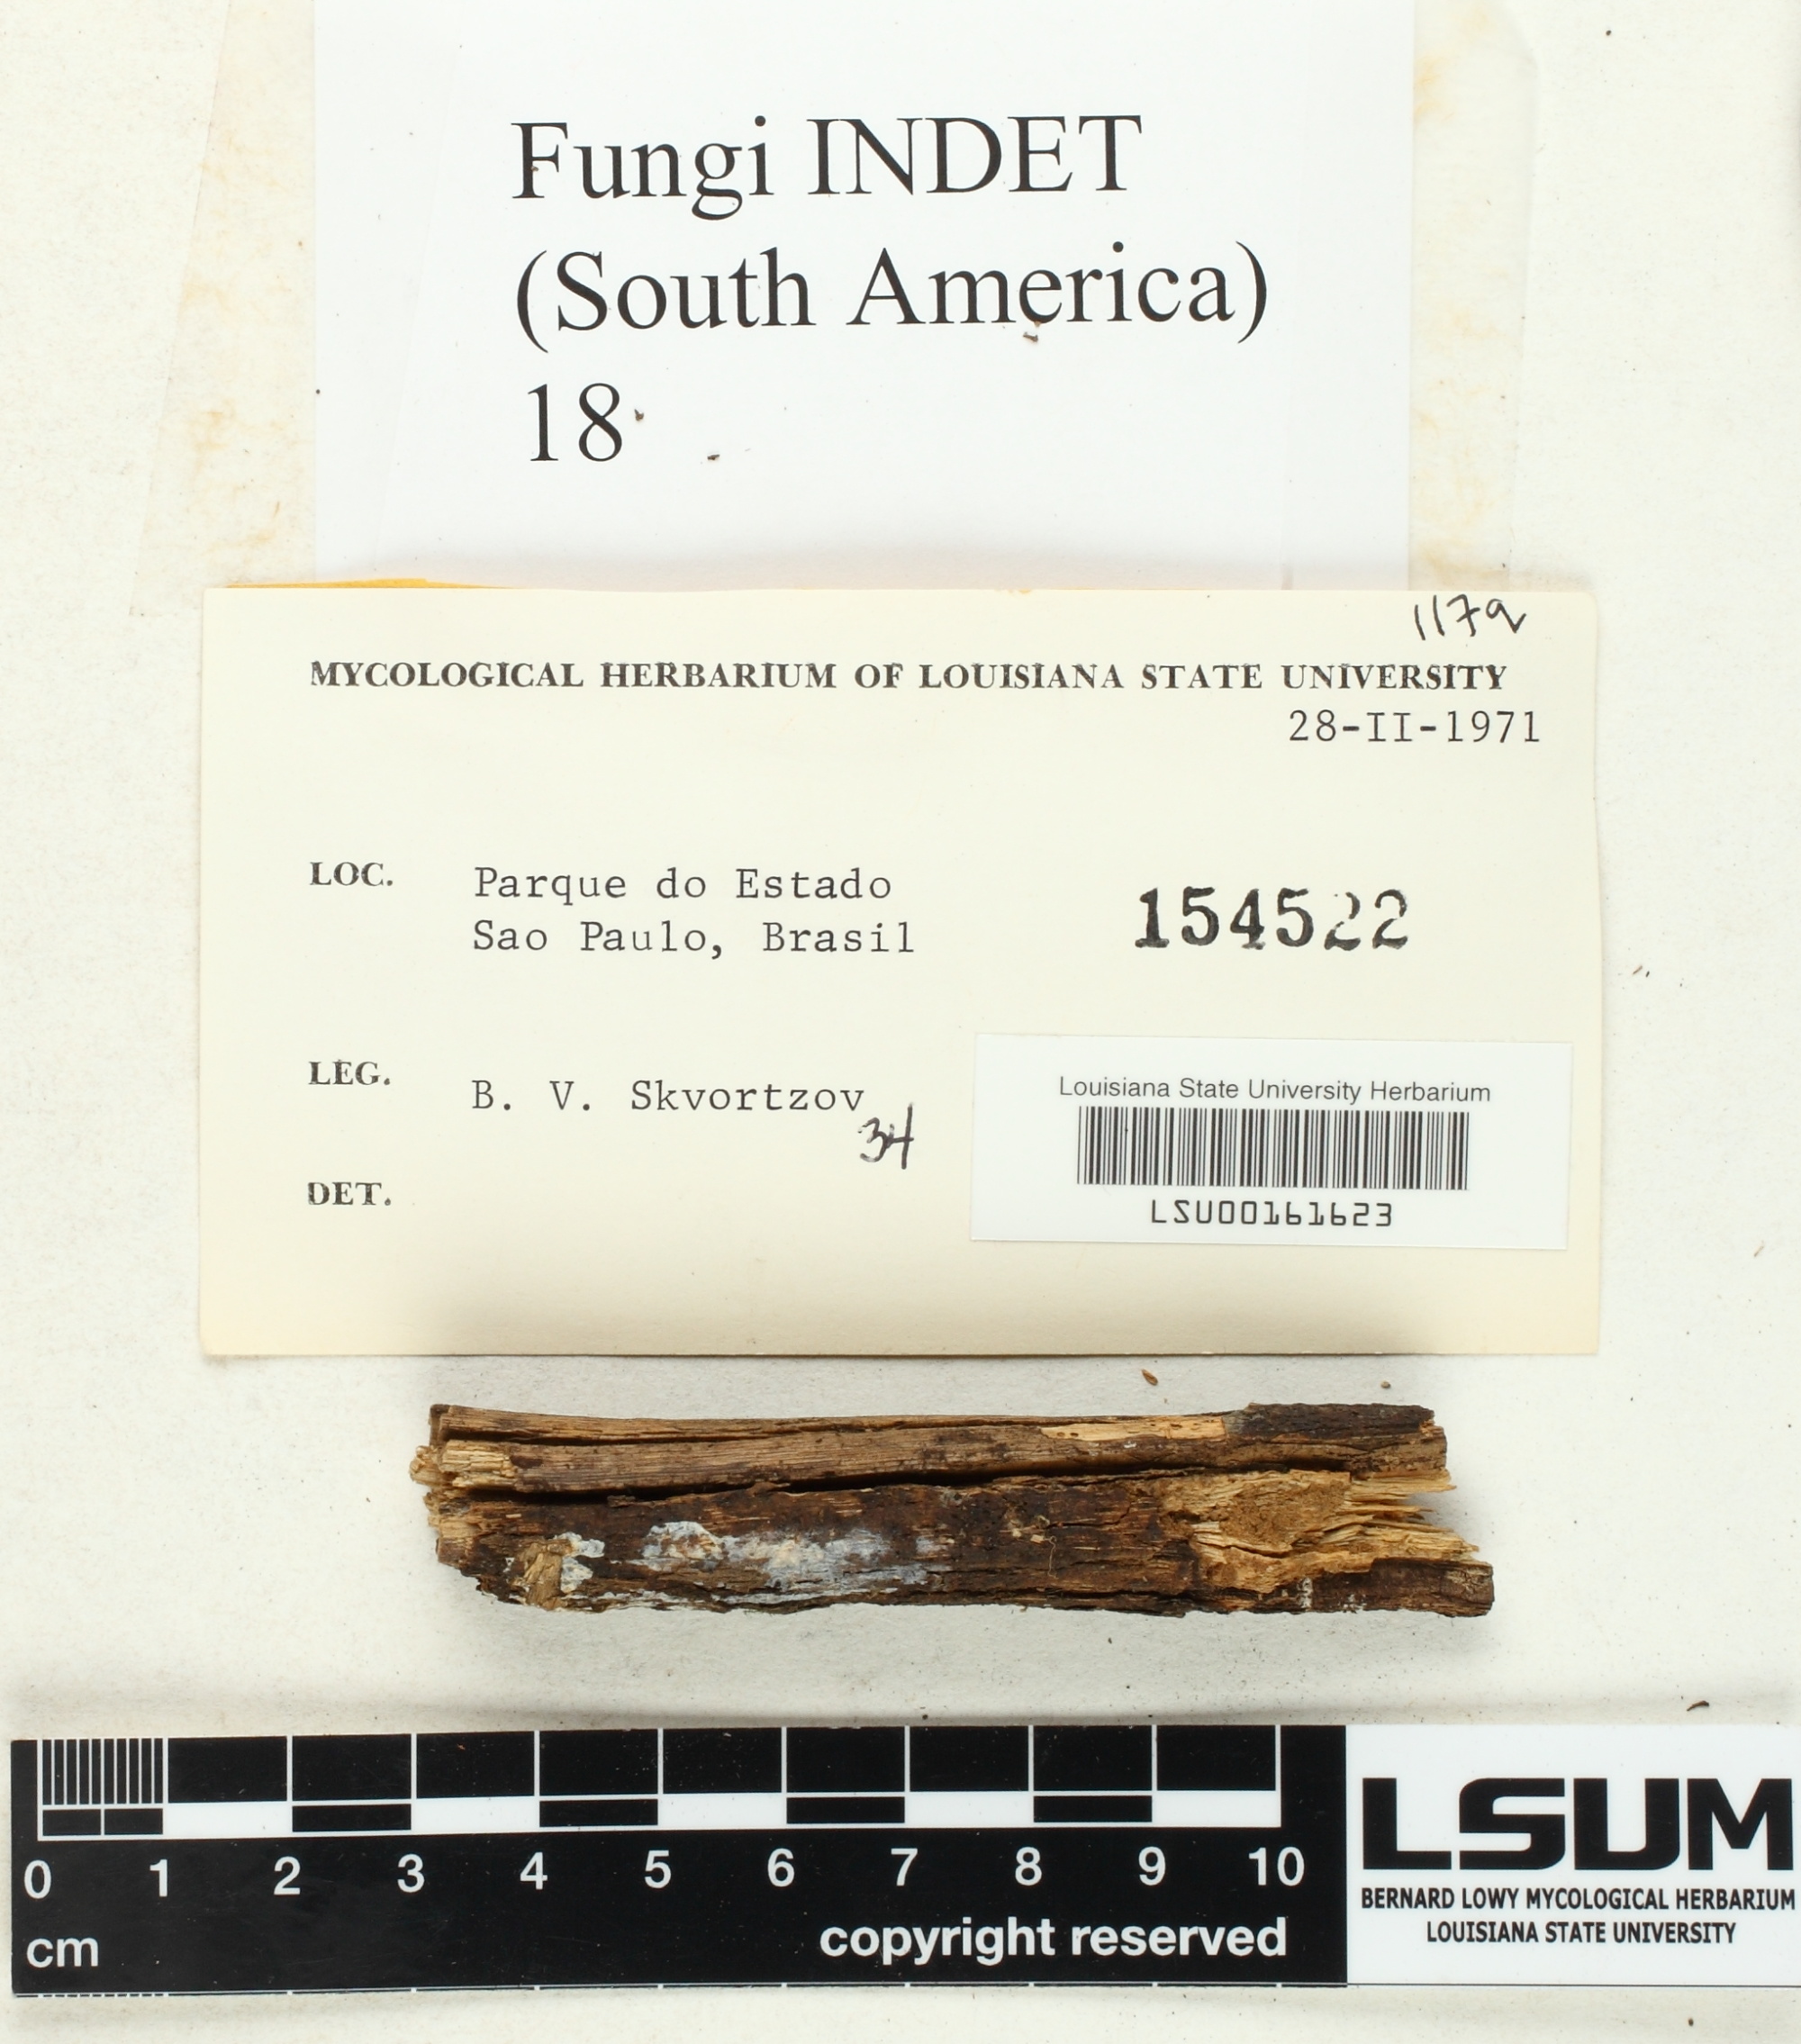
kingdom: Fungi
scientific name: Fungi
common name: Fungi
